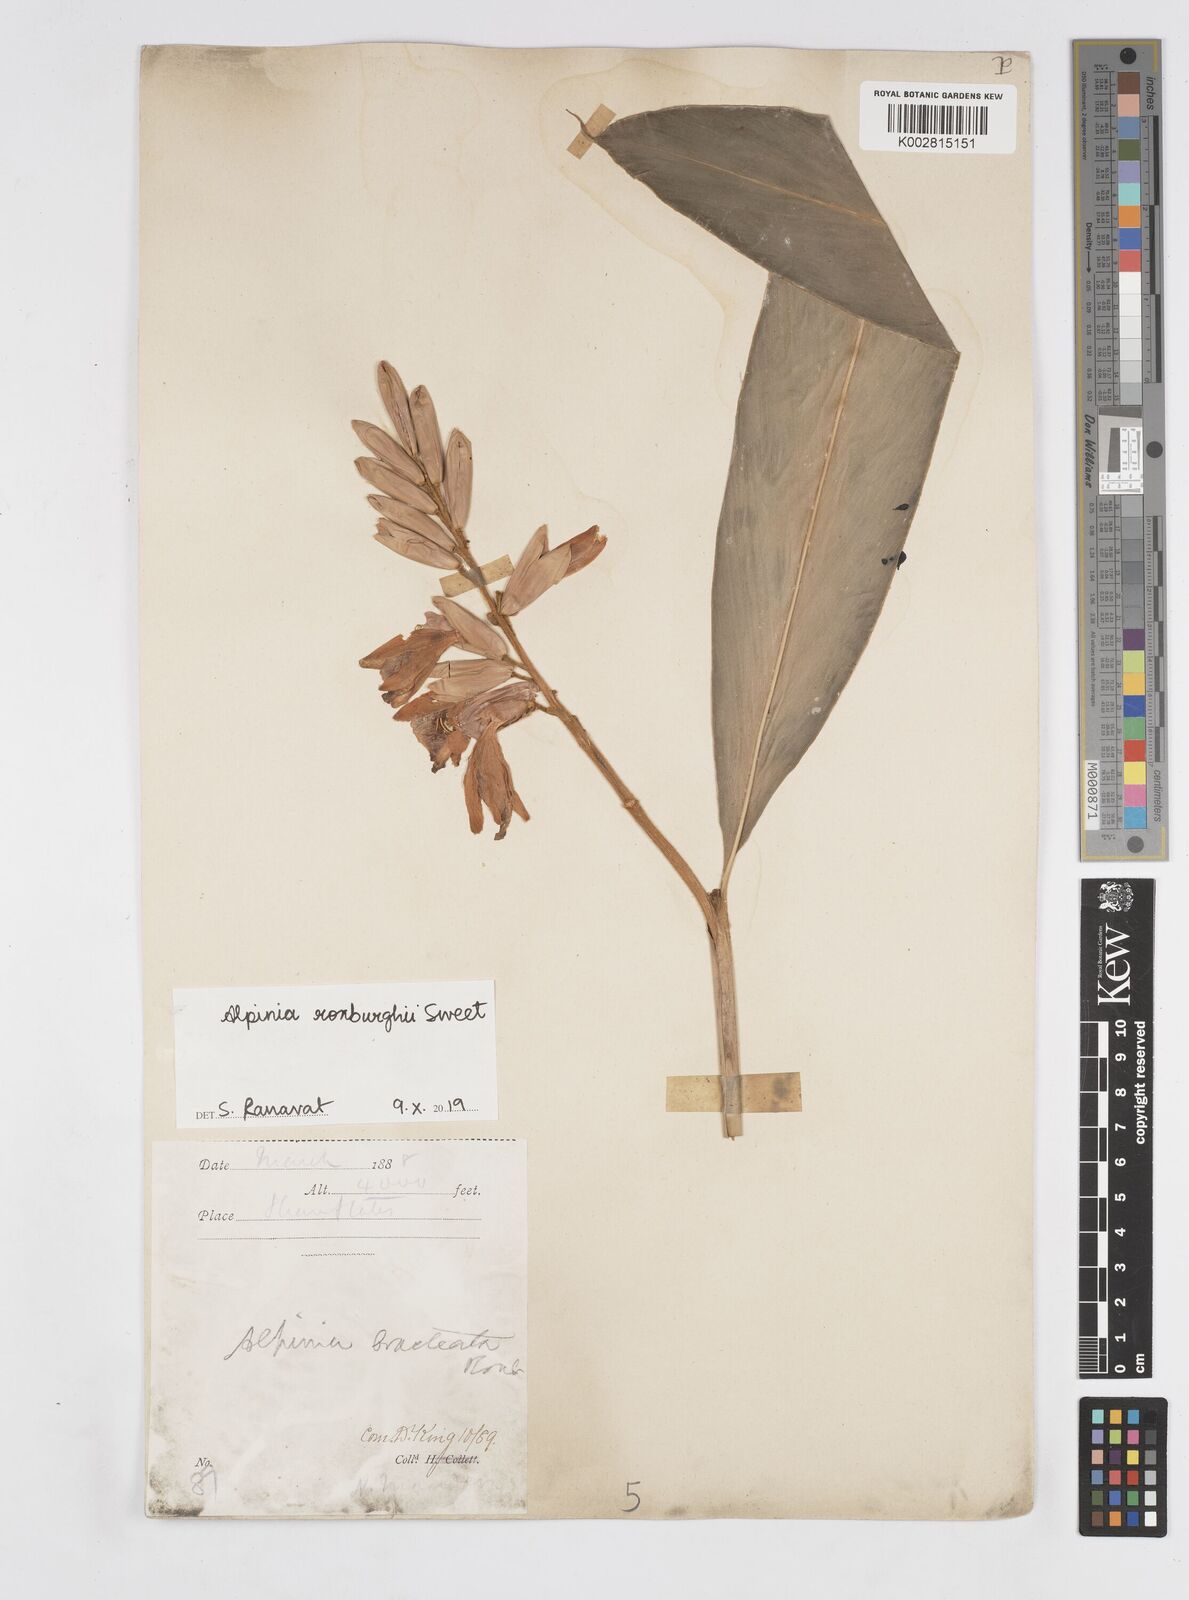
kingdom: Plantae
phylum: Tracheophyta
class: Liliopsida
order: Zingiberales
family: Zingiberaceae
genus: Alpinia
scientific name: Alpinia roxburghii
